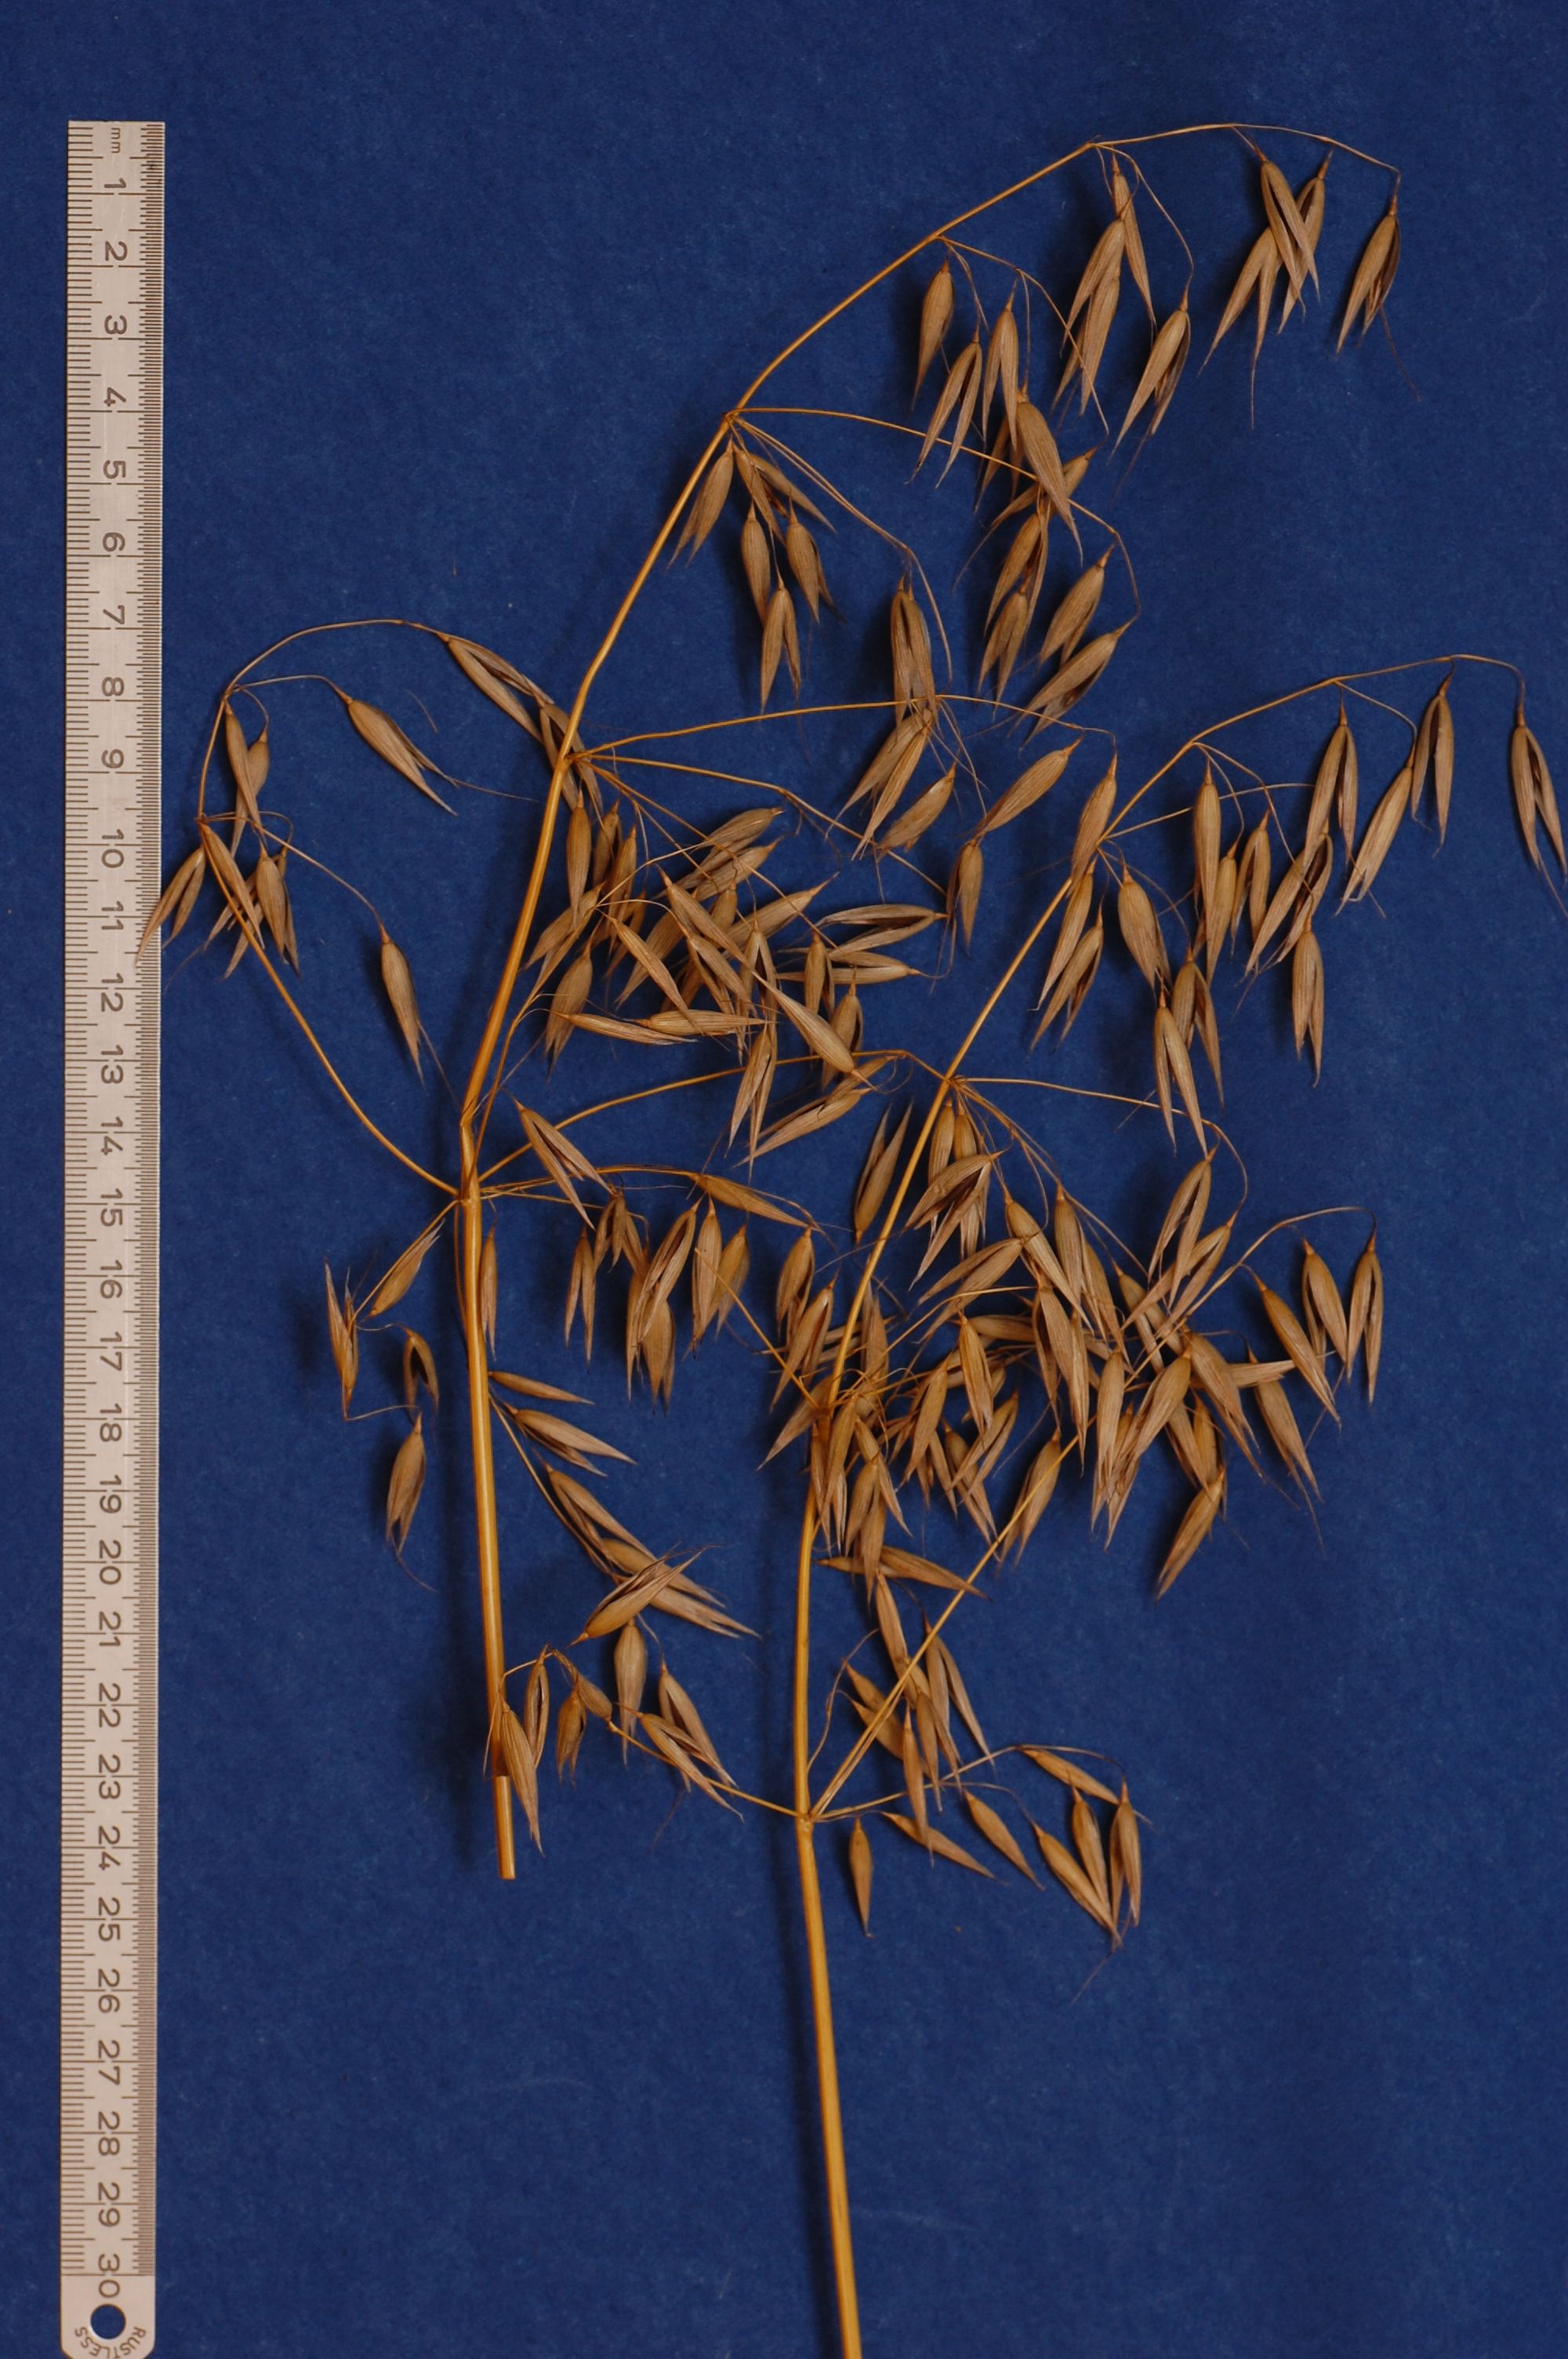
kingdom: Plantae
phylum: Tracheophyta
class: Liliopsida
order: Poales
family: Poaceae
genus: Avena
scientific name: Avena strigosa
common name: Bristle oat
